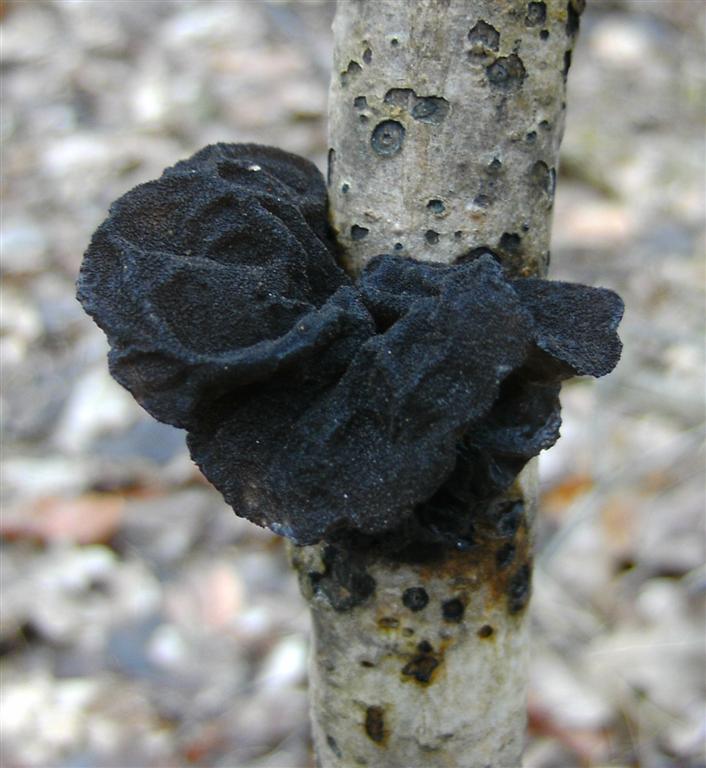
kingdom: Fungi
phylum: Basidiomycota
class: Agaricomycetes
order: Auriculariales
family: Auriculariaceae
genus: Exidia
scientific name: Exidia glandulosa
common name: ege-bævretop
